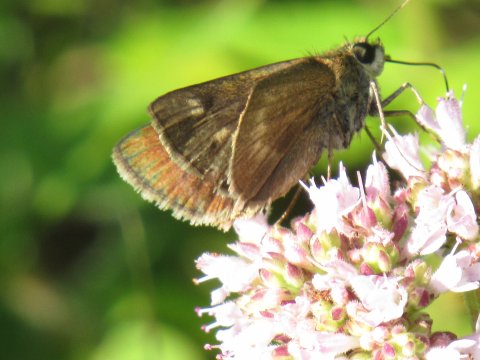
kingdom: Animalia
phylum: Arthropoda
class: Insecta
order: Lepidoptera
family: Hesperiidae
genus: Polites
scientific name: Polites egeremet
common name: Northern Broken-Dash
